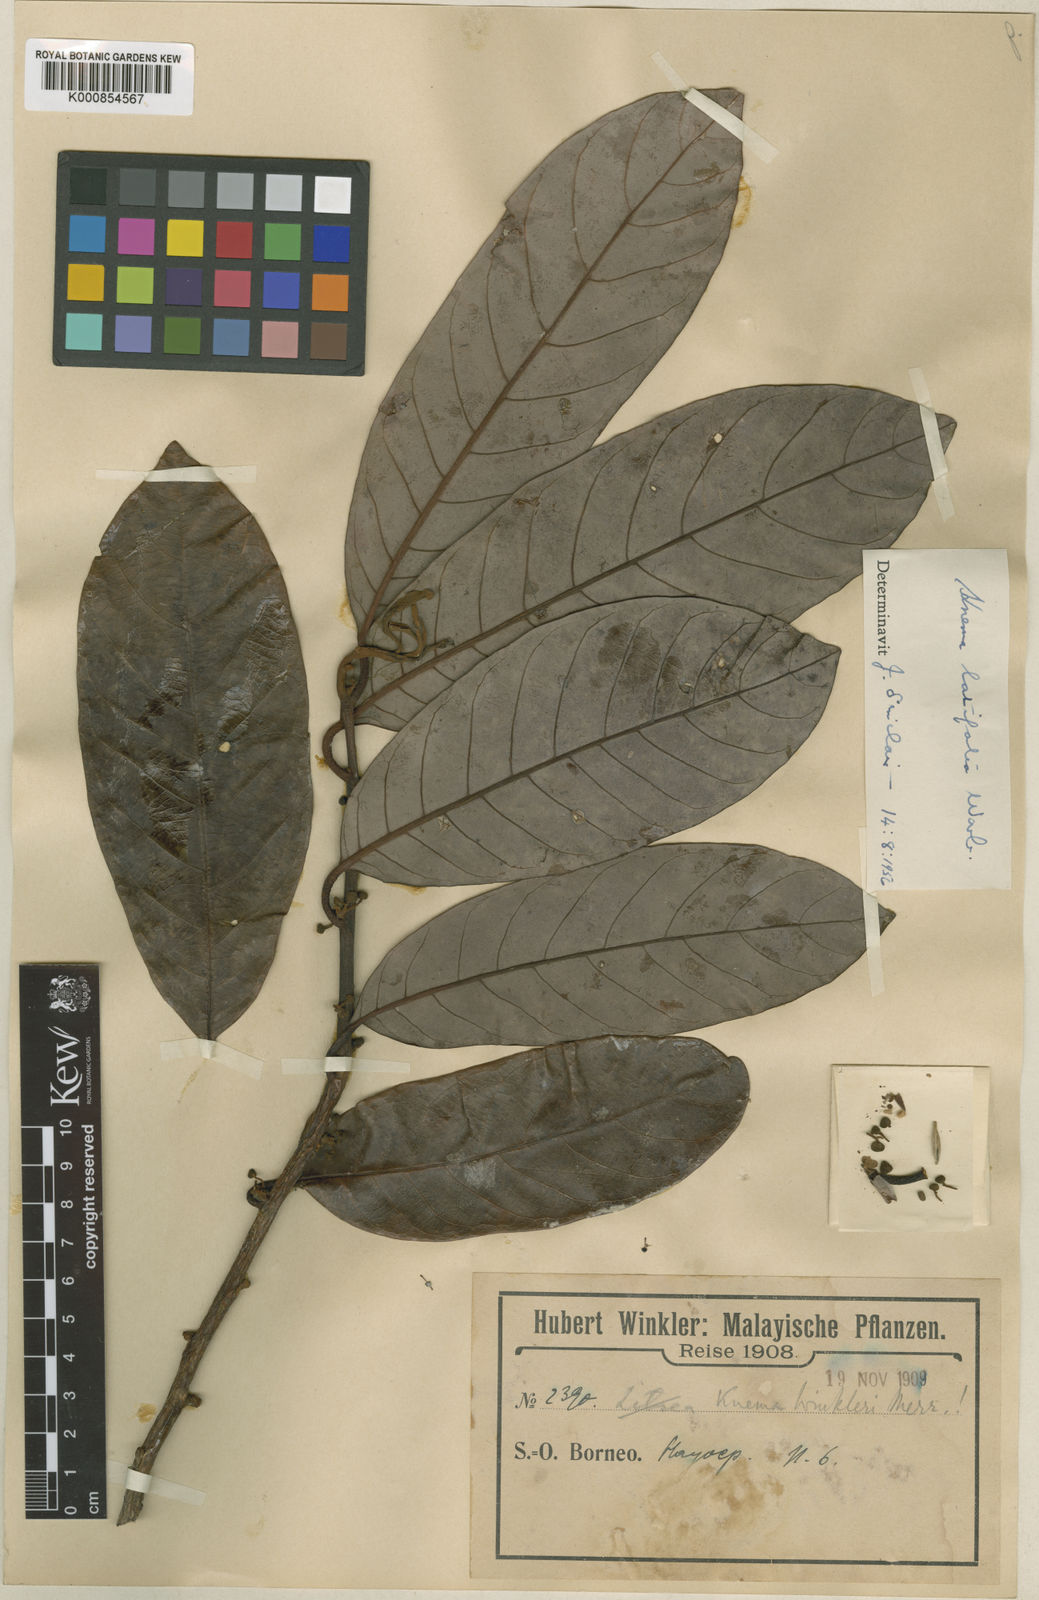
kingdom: Plantae
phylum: Tracheophyta
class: Magnoliopsida
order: Magnoliales
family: Myristicaceae
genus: Knema
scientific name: Knema latifolia
